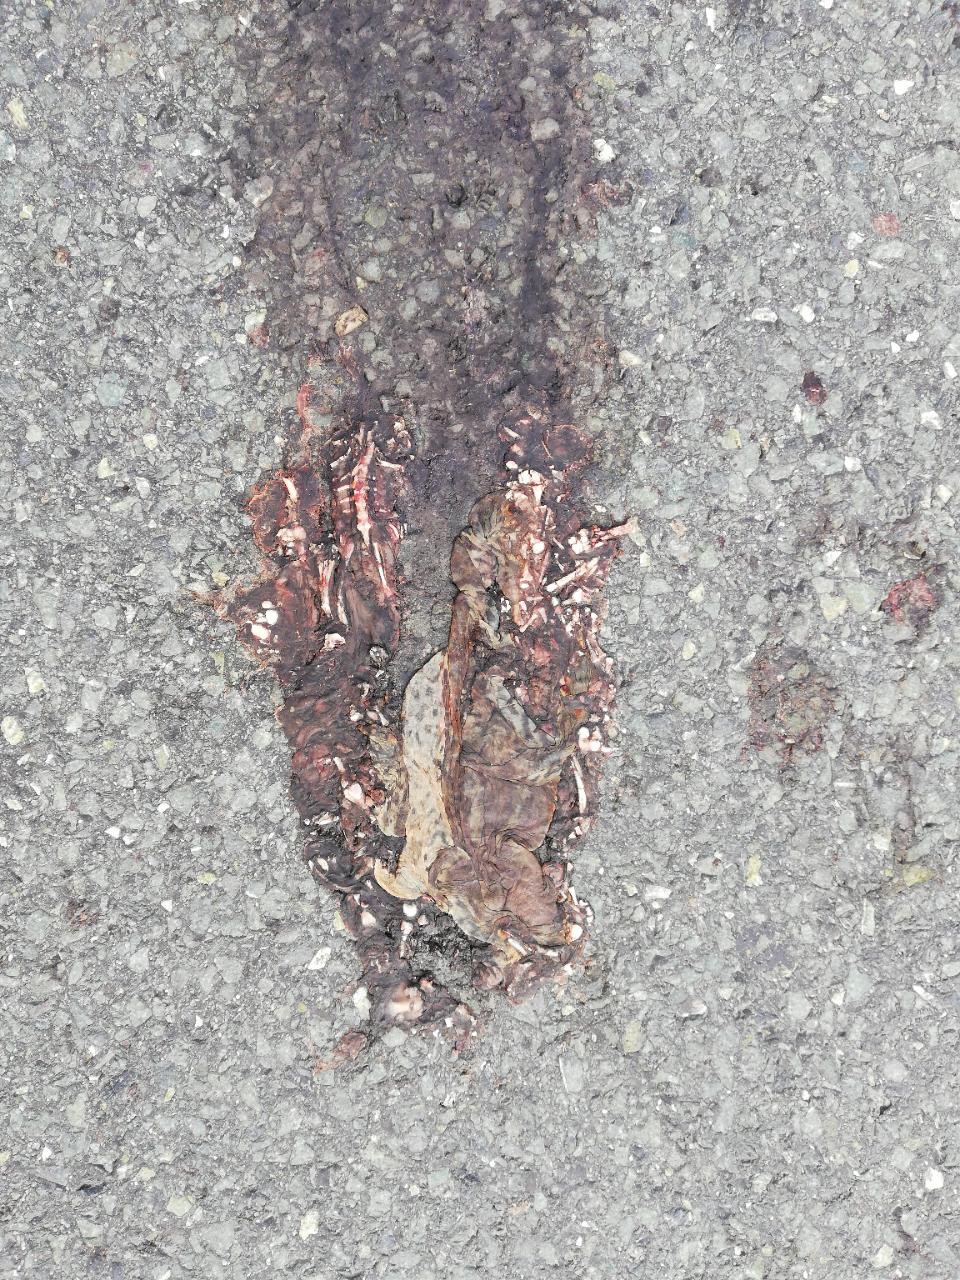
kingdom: Animalia
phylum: Chordata
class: Amphibia
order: Anura
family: Bufonidae
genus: Bufo
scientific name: Bufo bufo
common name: Common toad
